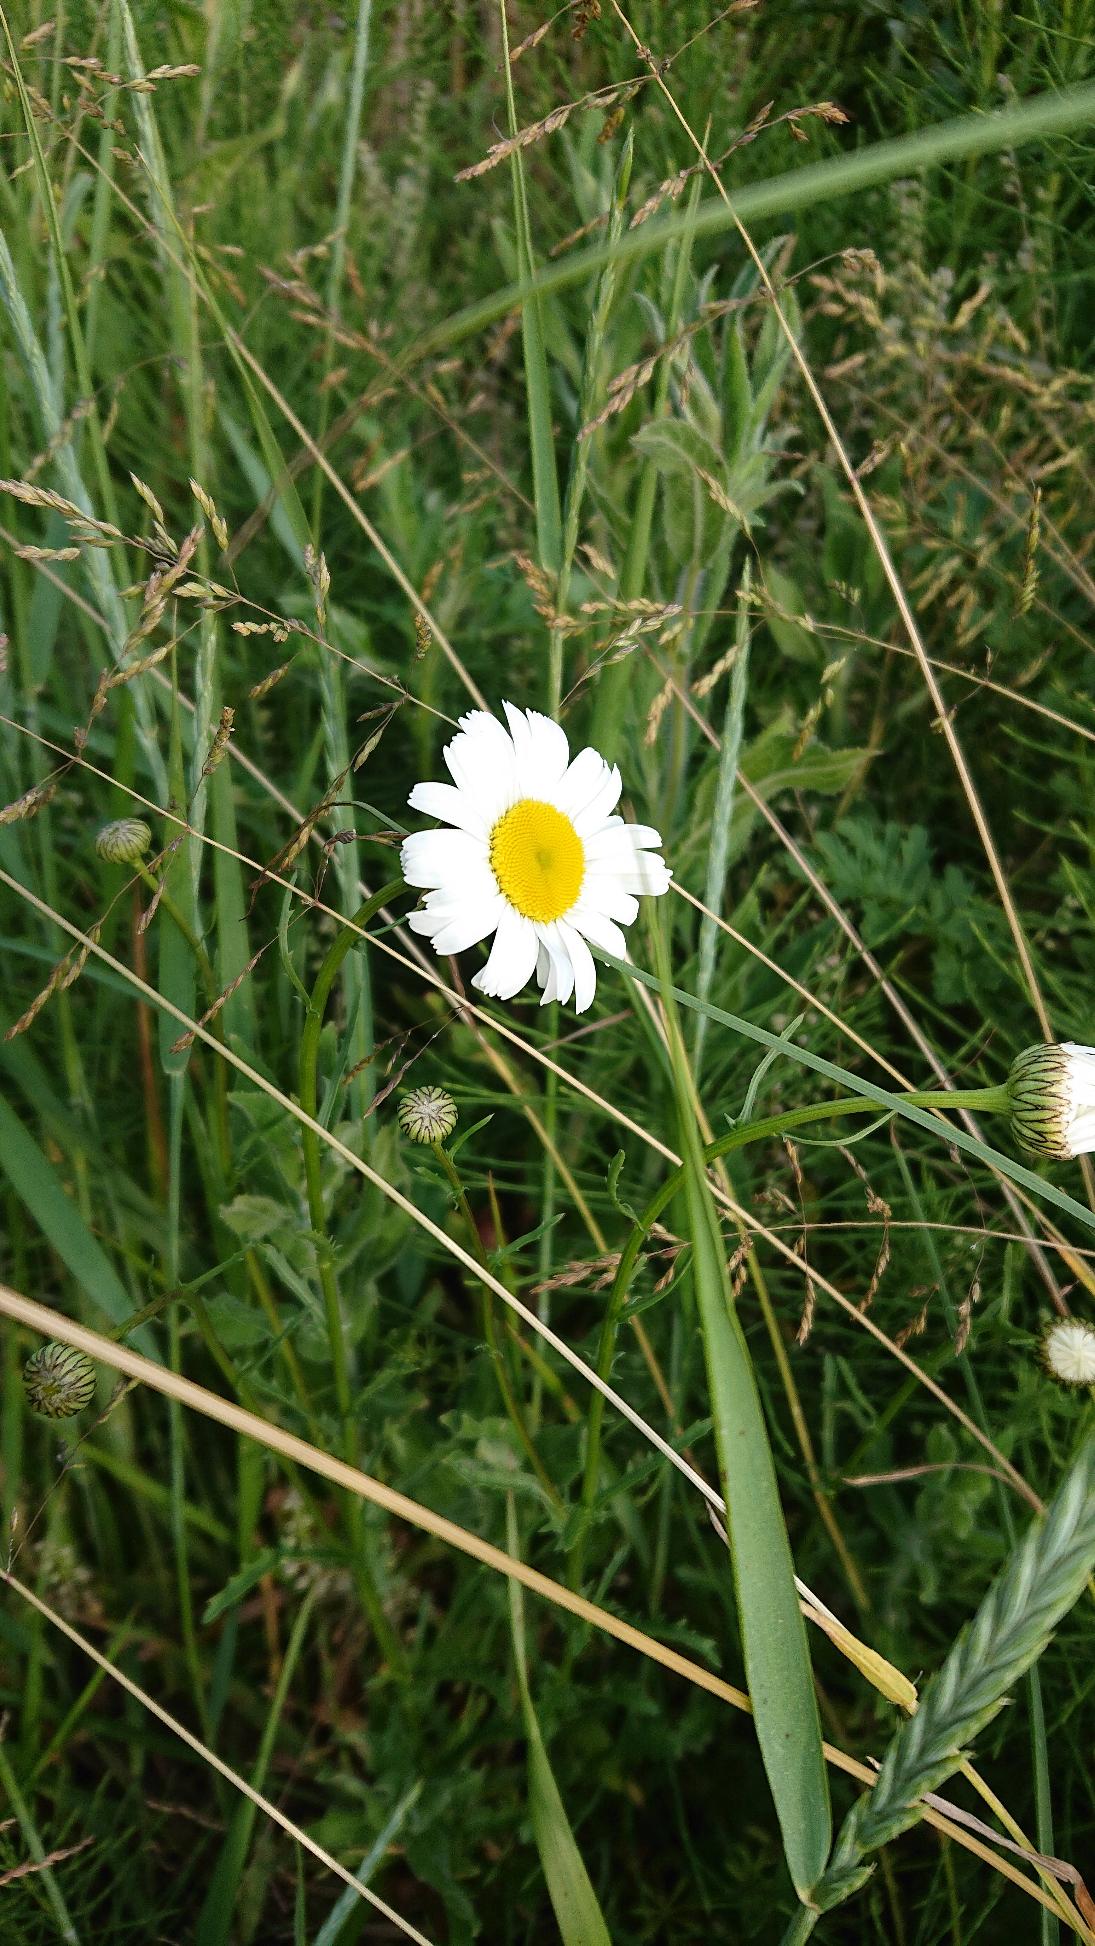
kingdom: Plantae
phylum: Tracheophyta
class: Magnoliopsida
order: Asterales
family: Asteraceae
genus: Leucanthemum
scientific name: Leucanthemum vulgare
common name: Hvid okseøje
